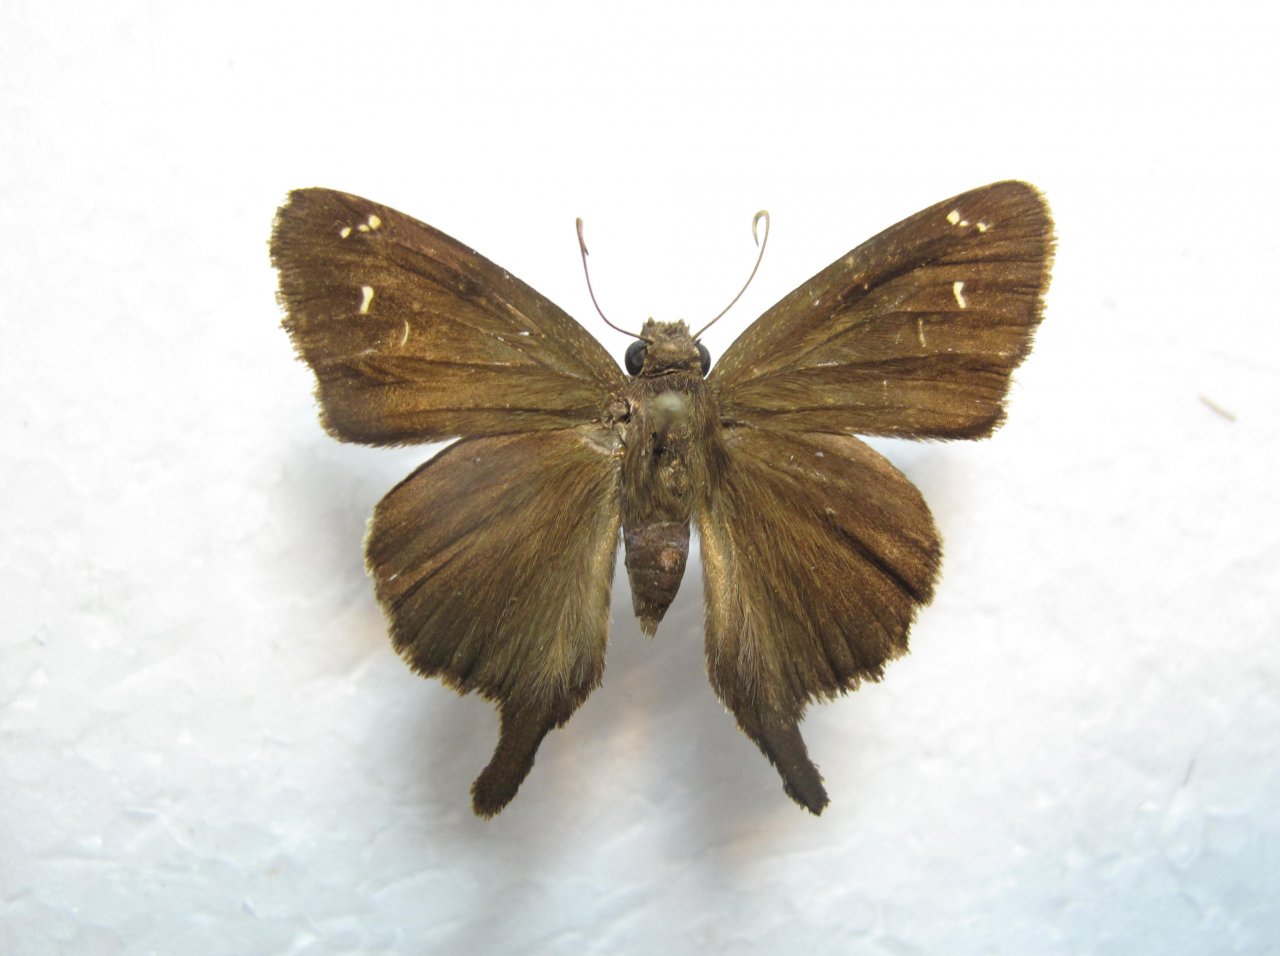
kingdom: Animalia
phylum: Arthropoda
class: Insecta
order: Lepidoptera
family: Hesperiidae
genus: Urbanus
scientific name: Urbanus dorantes
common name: Dark Longtail
